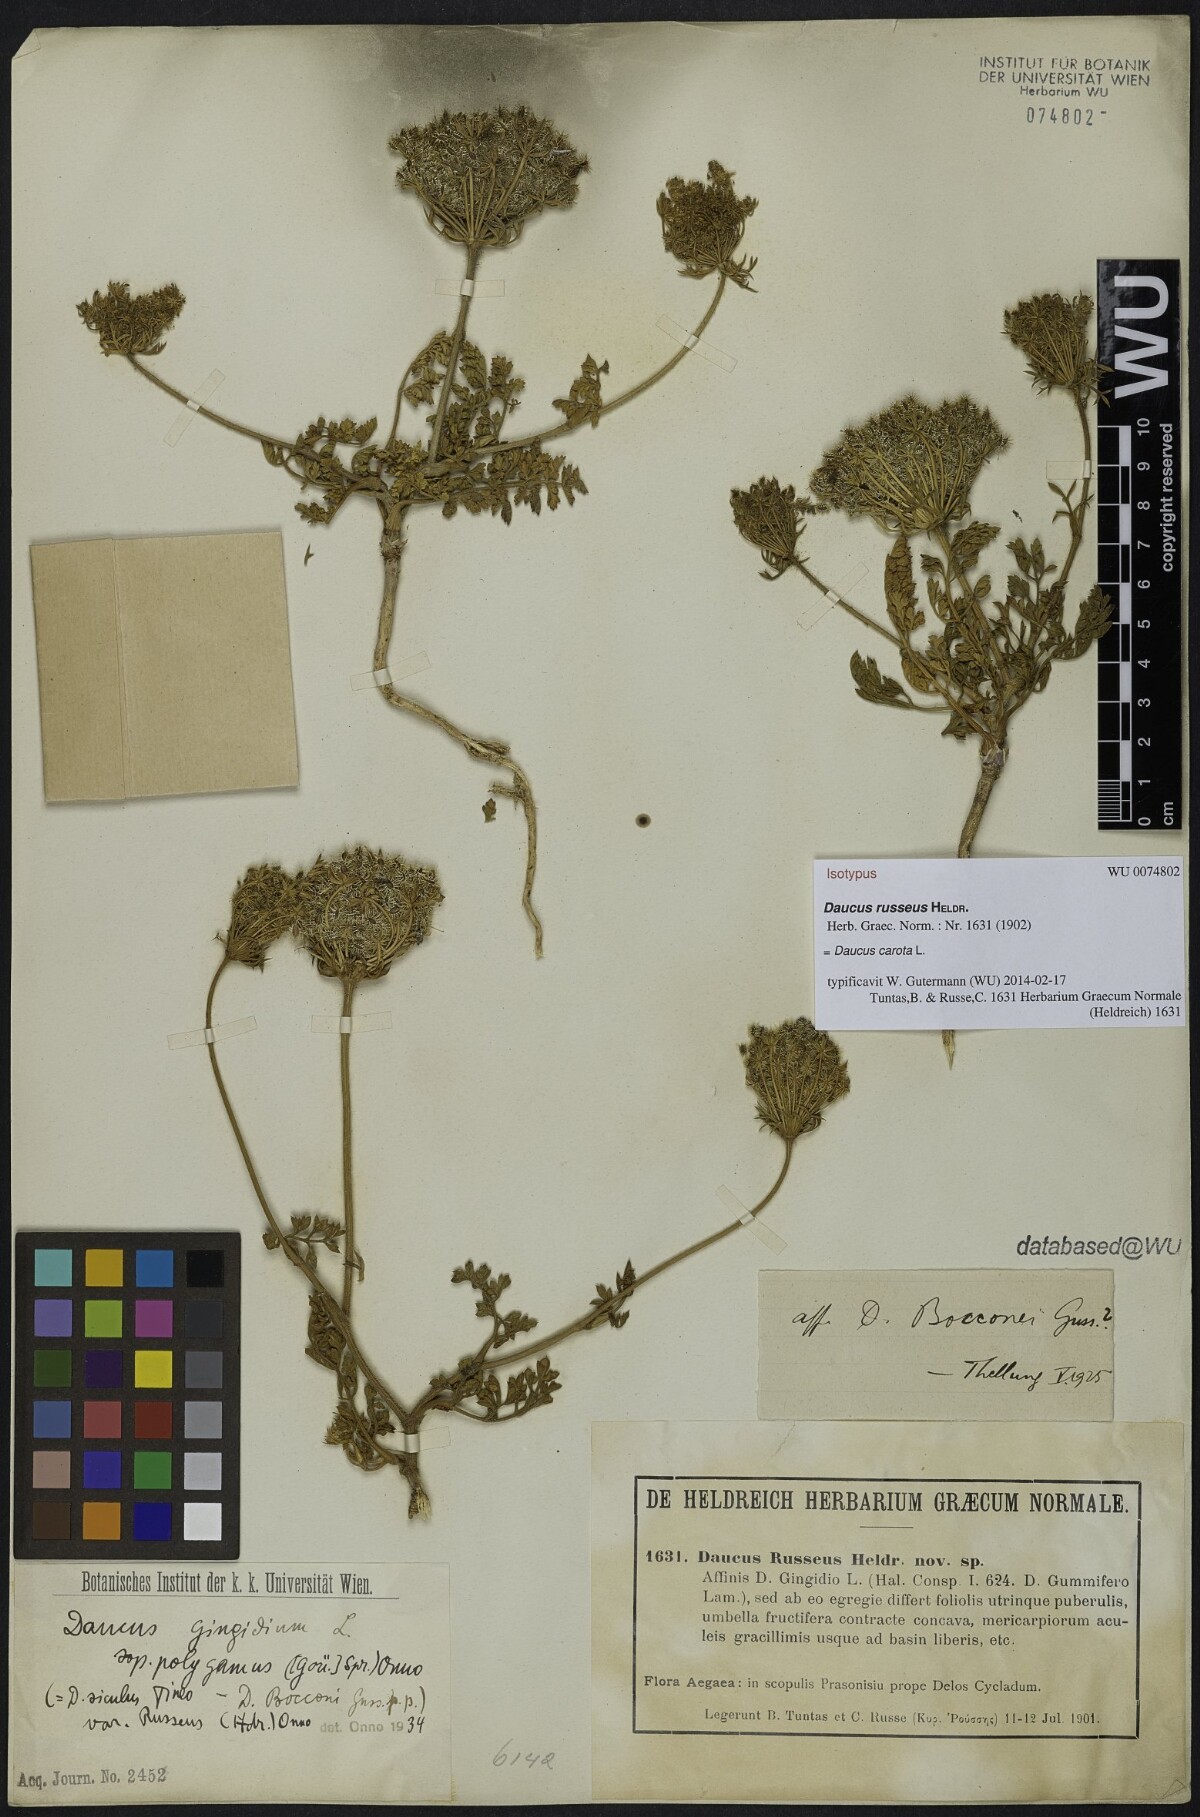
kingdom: Plantae
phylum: Tracheophyta
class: Magnoliopsida
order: Apiales
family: Apiaceae
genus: Daucus
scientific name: Daucus carota
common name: Wild carrot
